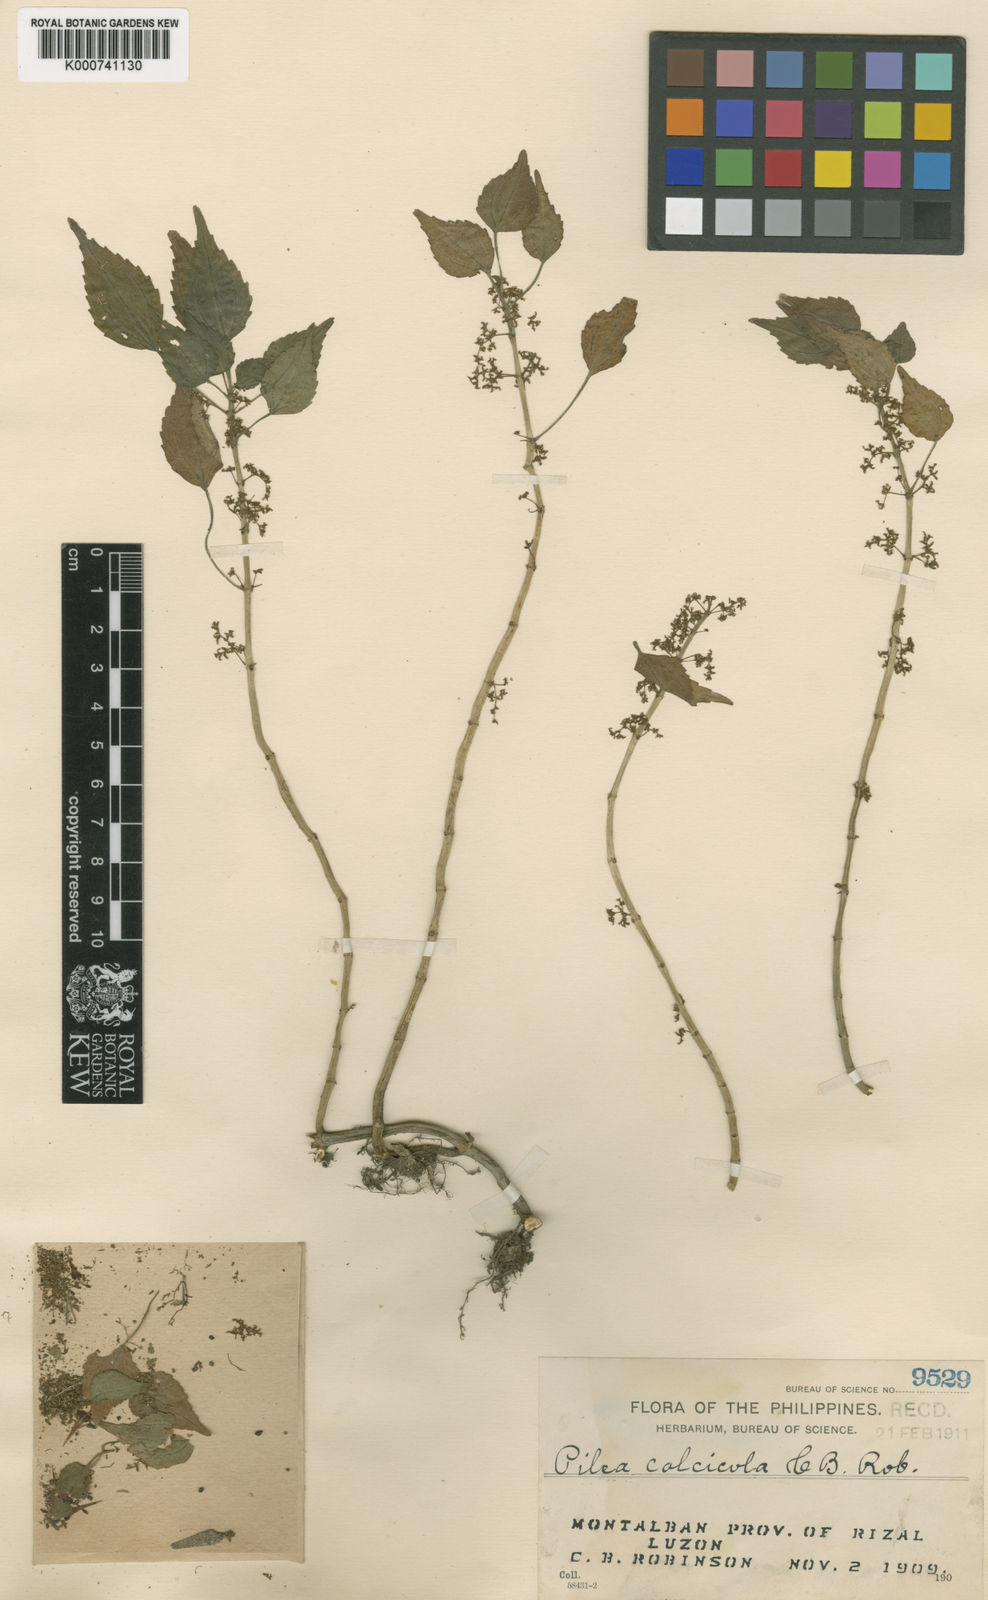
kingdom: Plantae
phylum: Tracheophyta
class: Magnoliopsida
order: Rosales
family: Urticaceae
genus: Pilea
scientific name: Pilea calcicola
